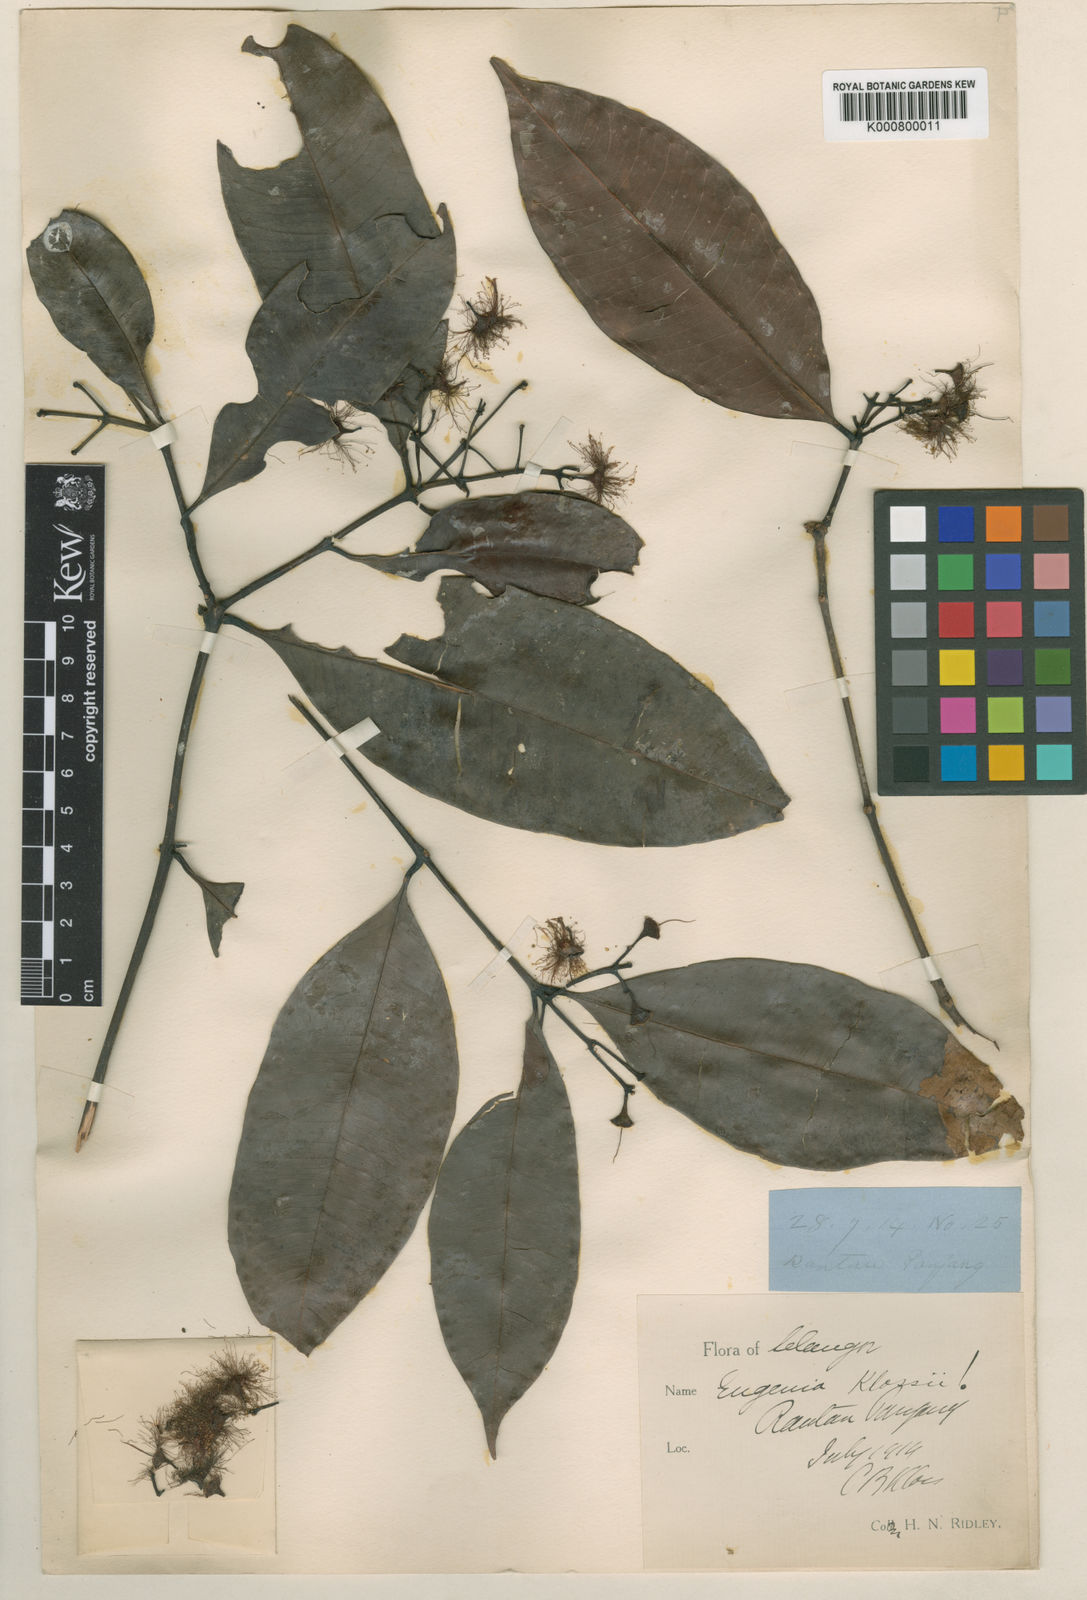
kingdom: Plantae
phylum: Tracheophyta
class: Magnoliopsida
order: Myrtales
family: Myrtaceae
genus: Syzygium
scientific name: Syzygium klossii
